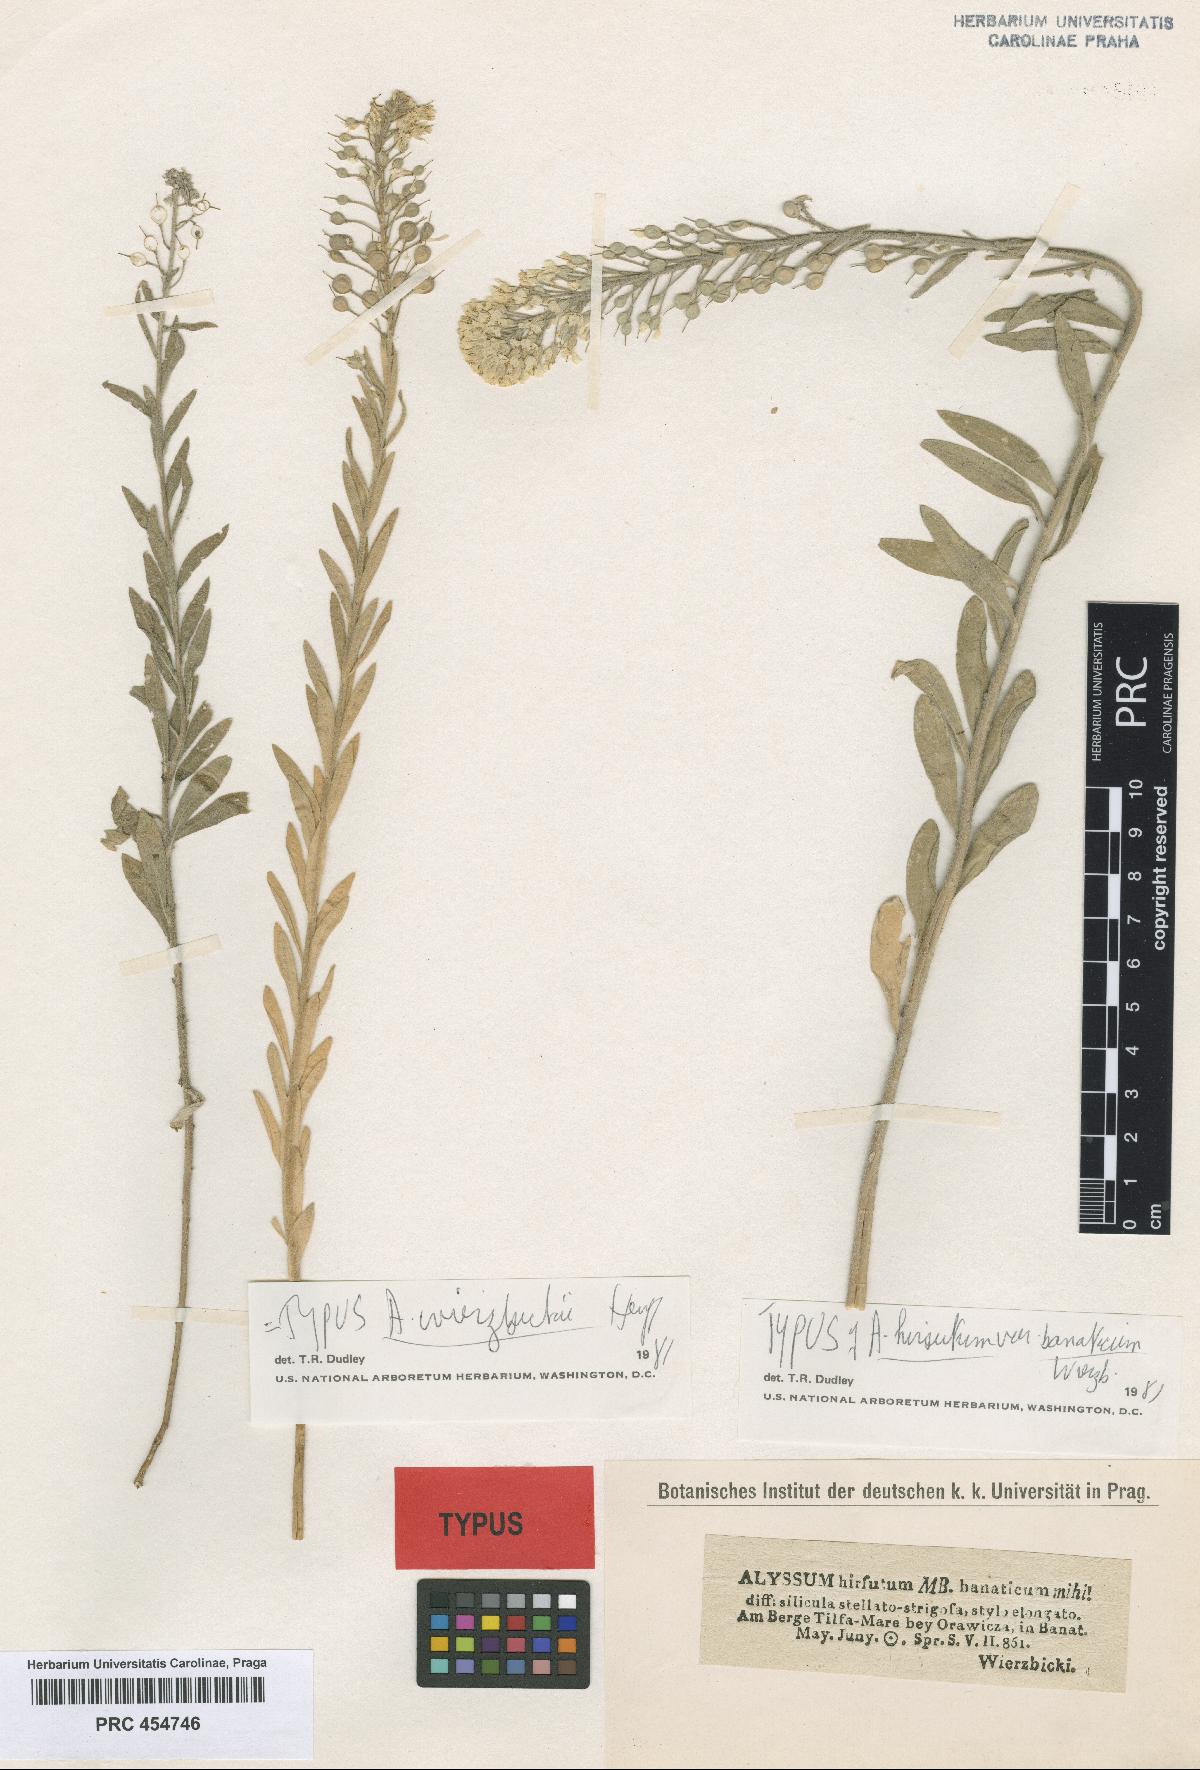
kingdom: Plantae
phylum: Tracheophyta
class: Magnoliopsida
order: Brassicales
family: Brassicaceae
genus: Alyssum
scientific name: Alyssum wierzbickii
